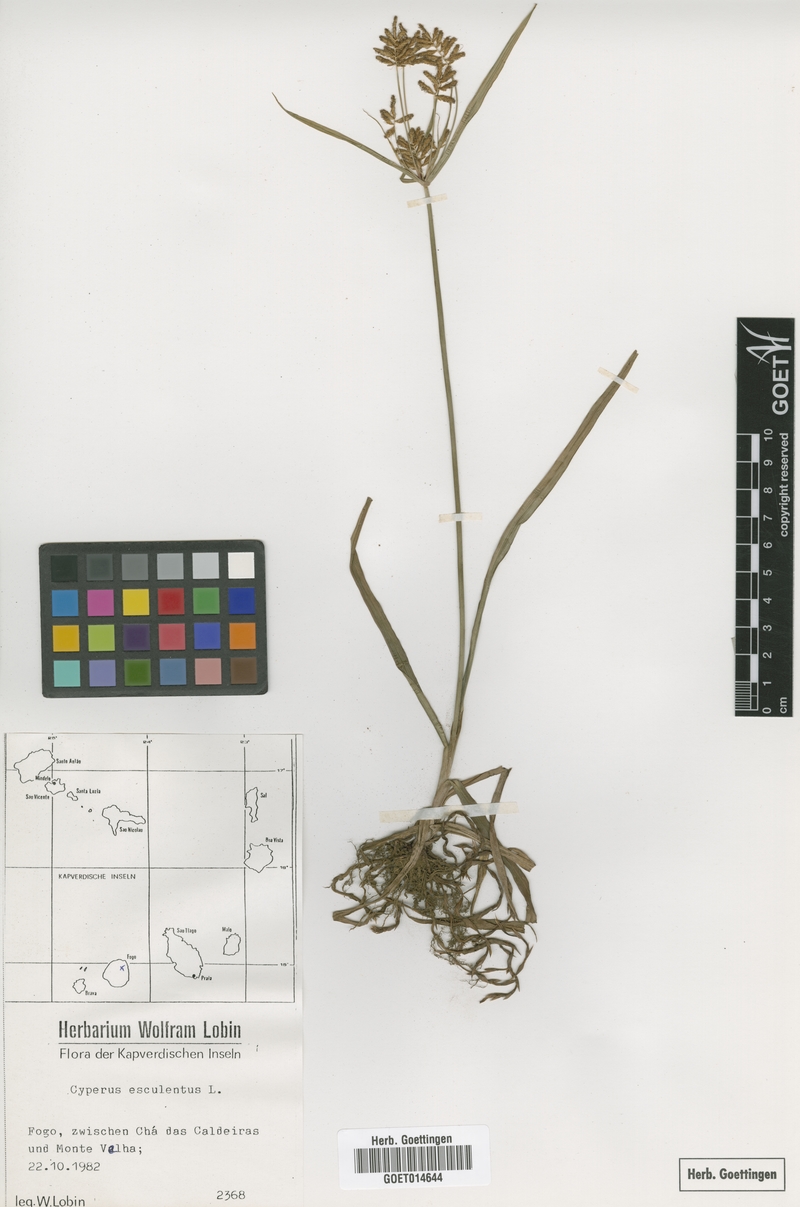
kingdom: Plantae
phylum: Tracheophyta
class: Liliopsida
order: Poales
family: Cyperaceae
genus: Cyperus
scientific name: Cyperus esculentus
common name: Yellow nutsedge
